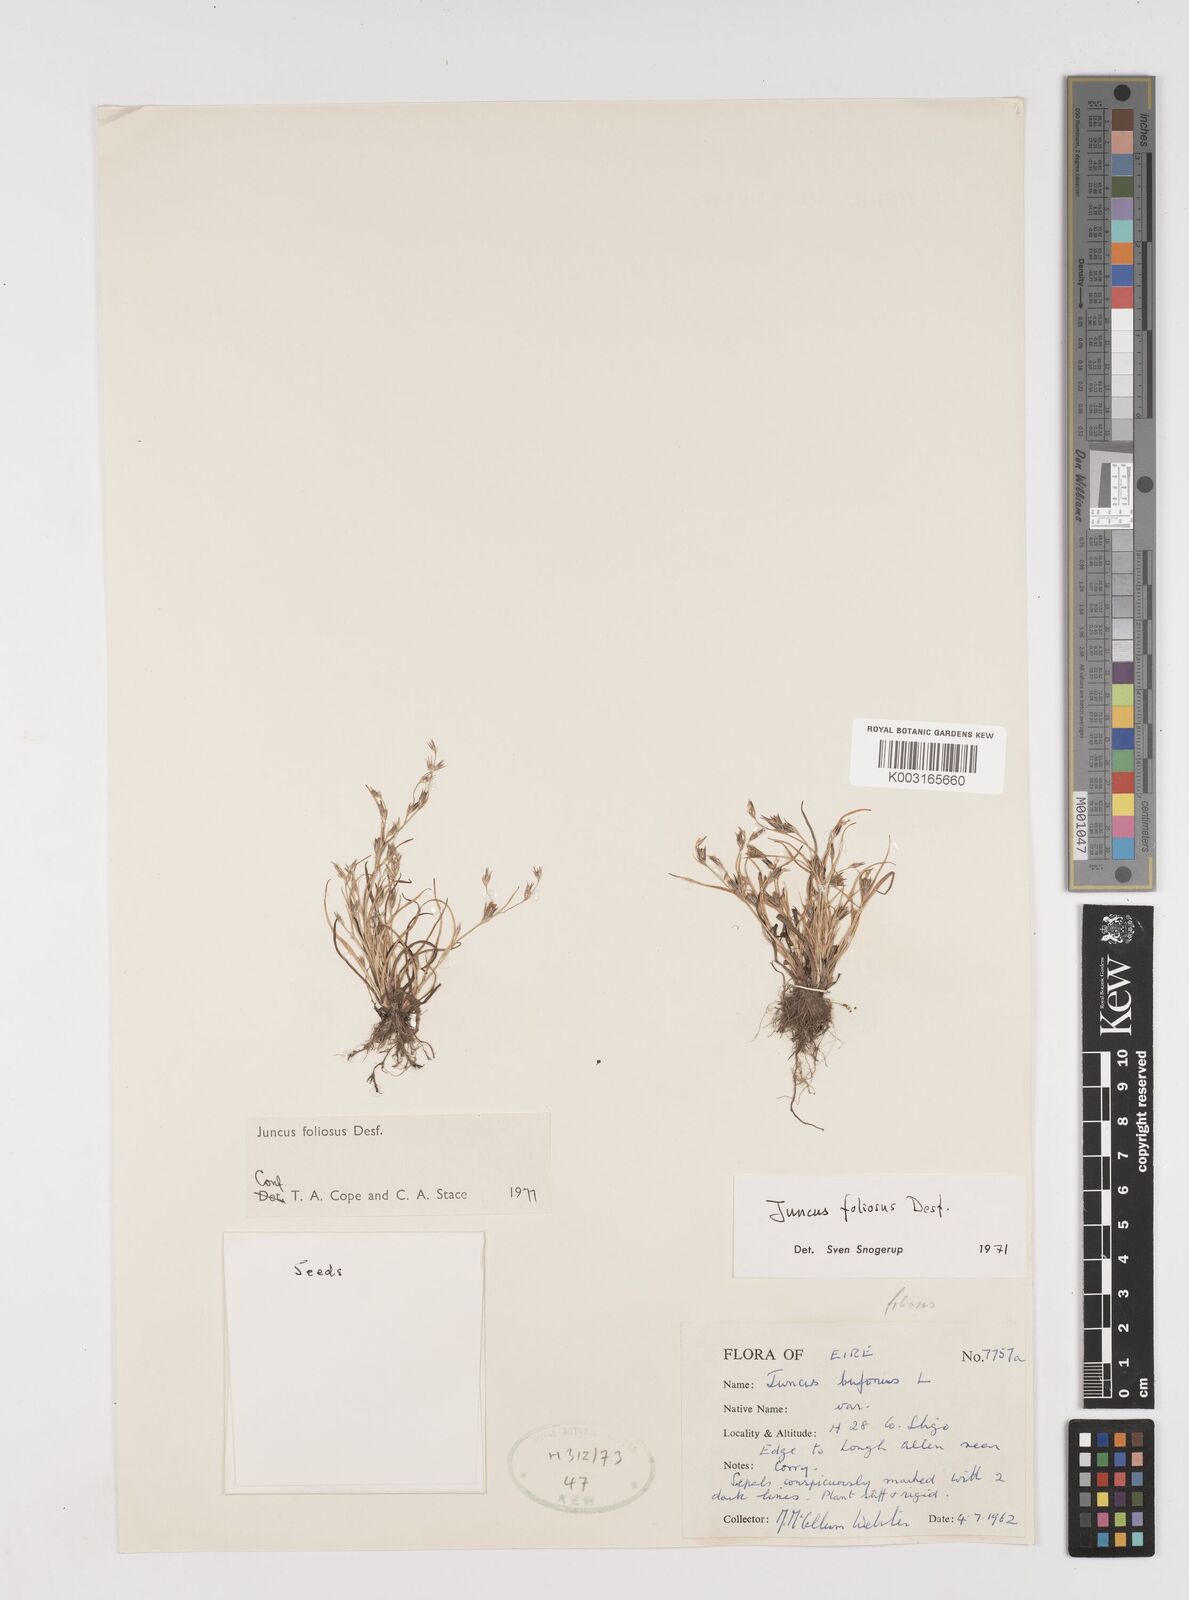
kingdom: Plantae
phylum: Tracheophyta
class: Liliopsida
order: Poales
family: Juncaceae
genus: Juncus
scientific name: Juncus foliosus
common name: Leafy rush
